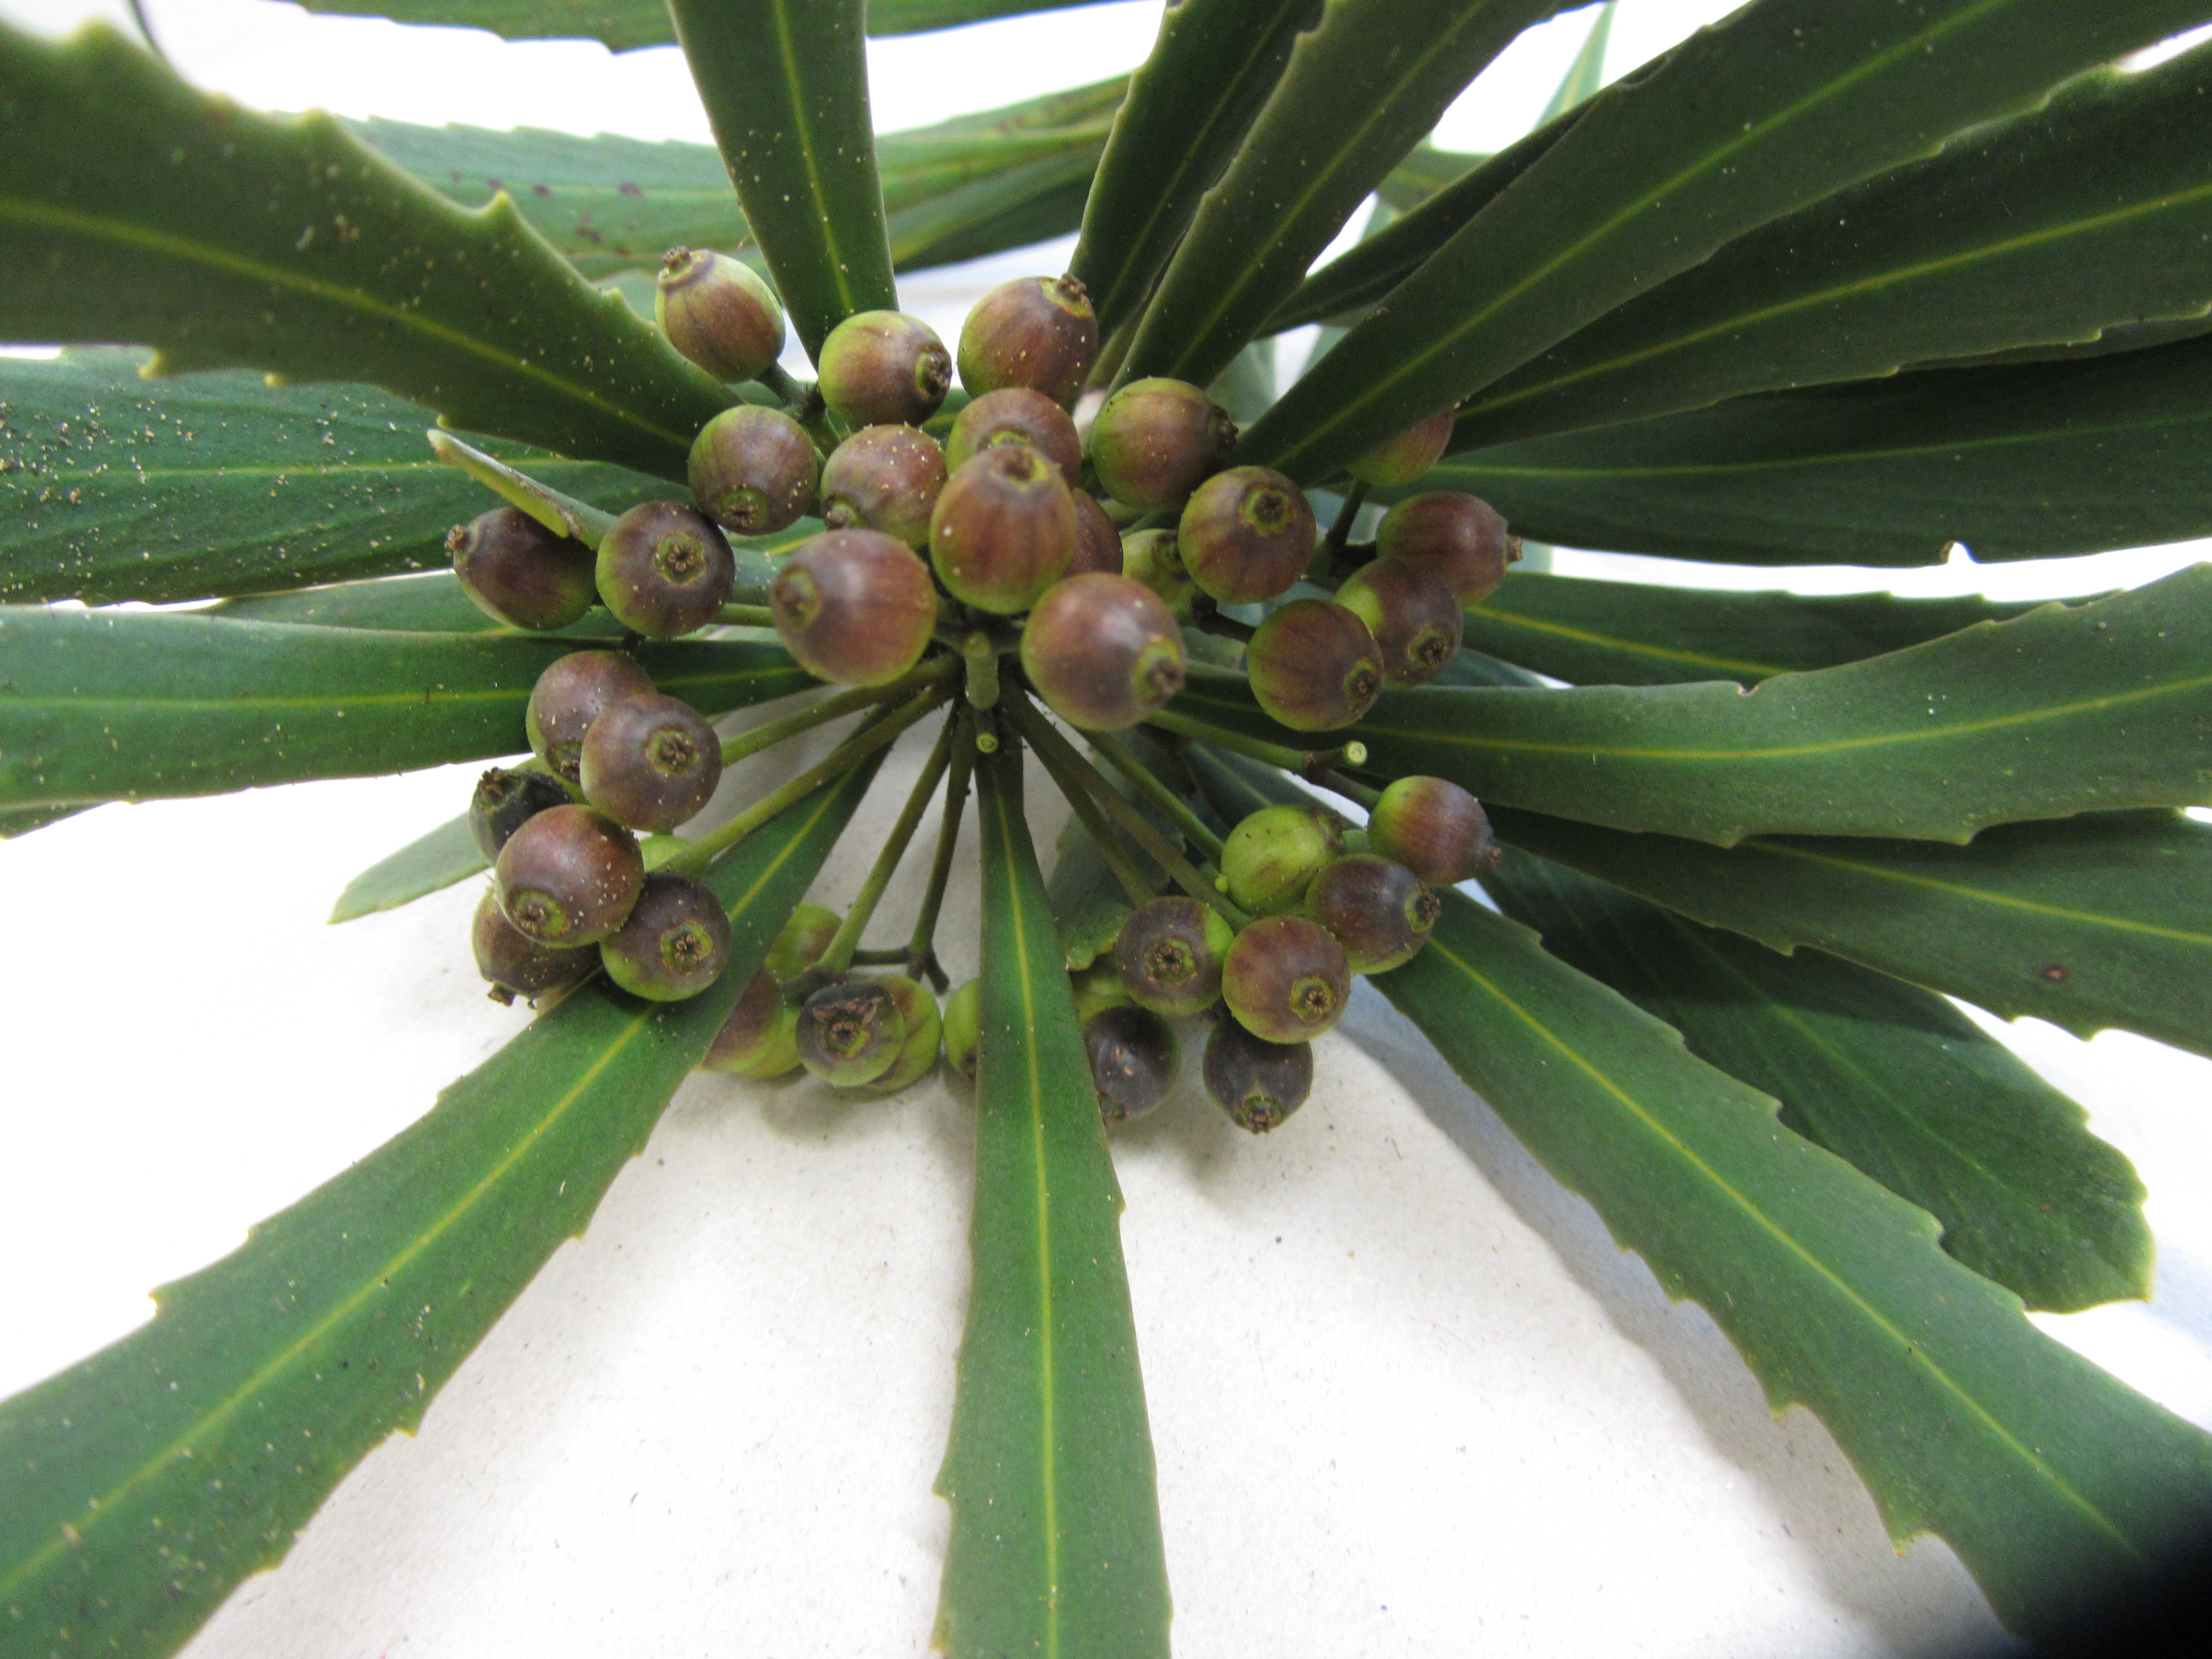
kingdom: Plantae
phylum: Tracheophyta
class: Magnoliopsida
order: Apiales
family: Araliaceae
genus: Pseudopanax
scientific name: Pseudopanax ferox
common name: Fierce lancewood
